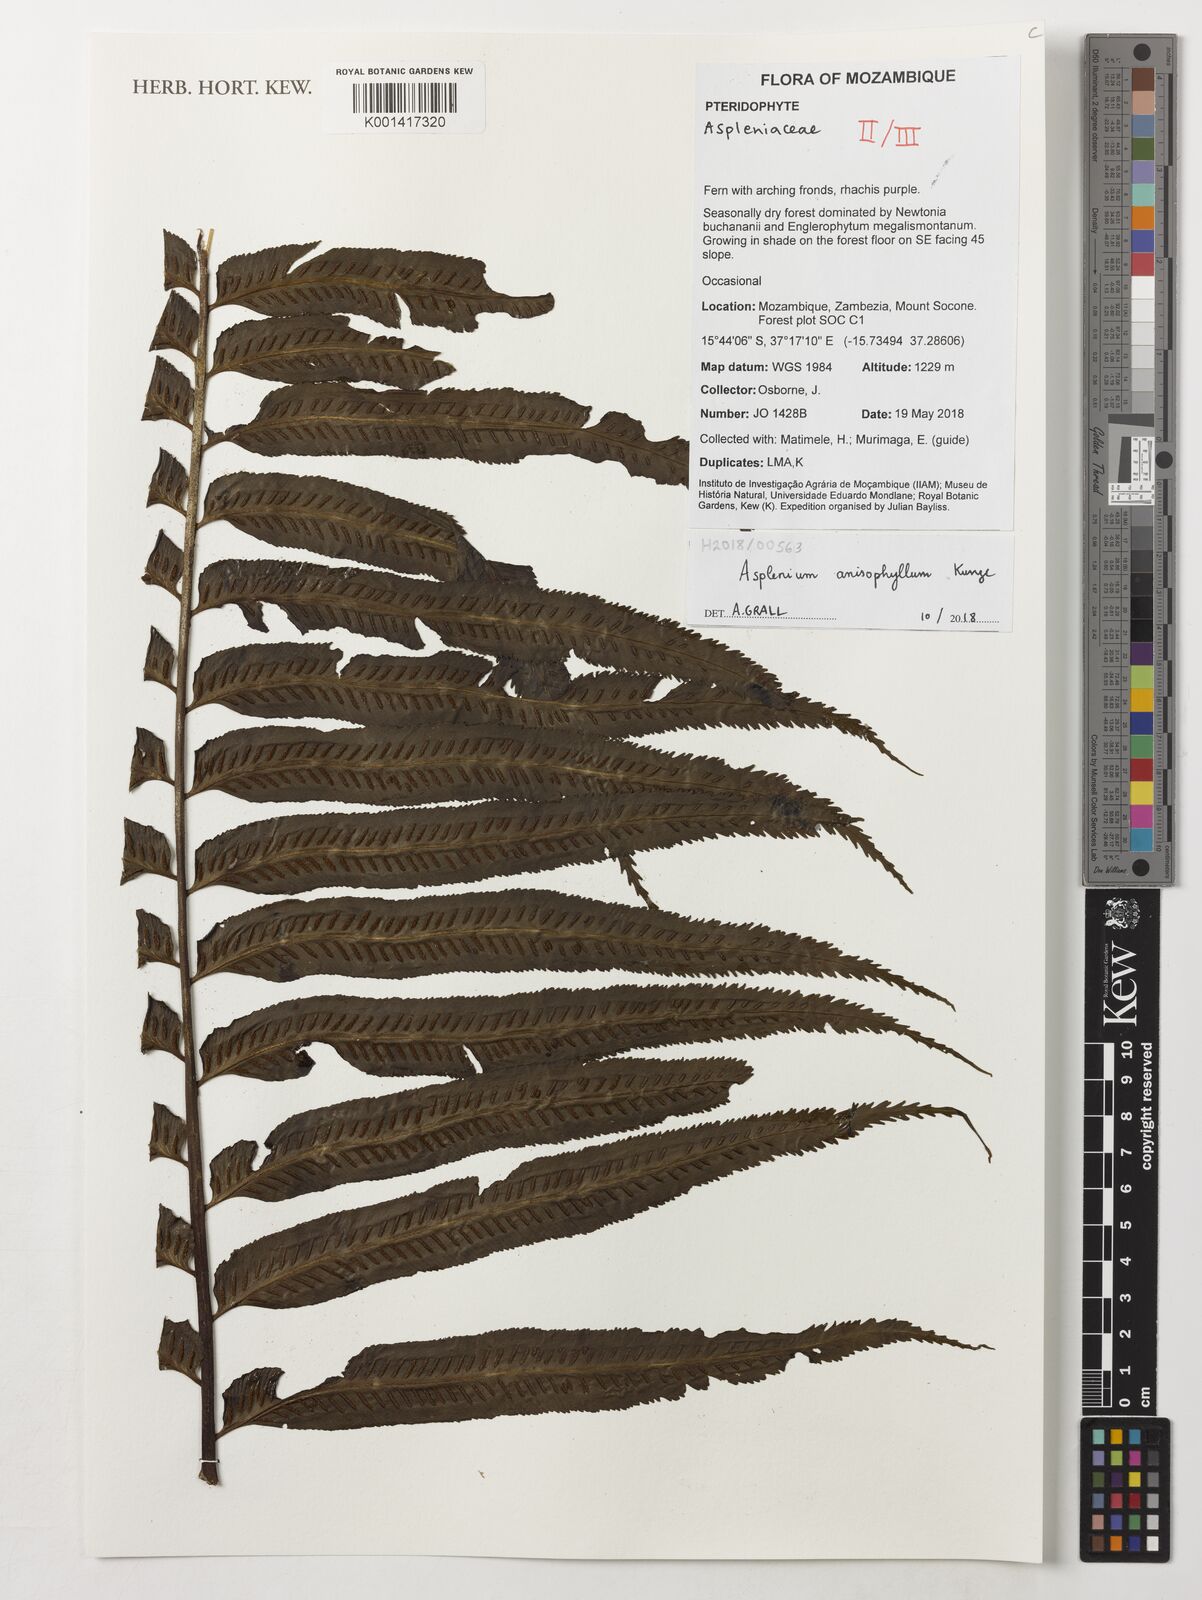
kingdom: Plantae
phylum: Tracheophyta
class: Polypodiopsida
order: Polypodiales
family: Aspleniaceae
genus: Asplenium
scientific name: Asplenium anisophyllum
